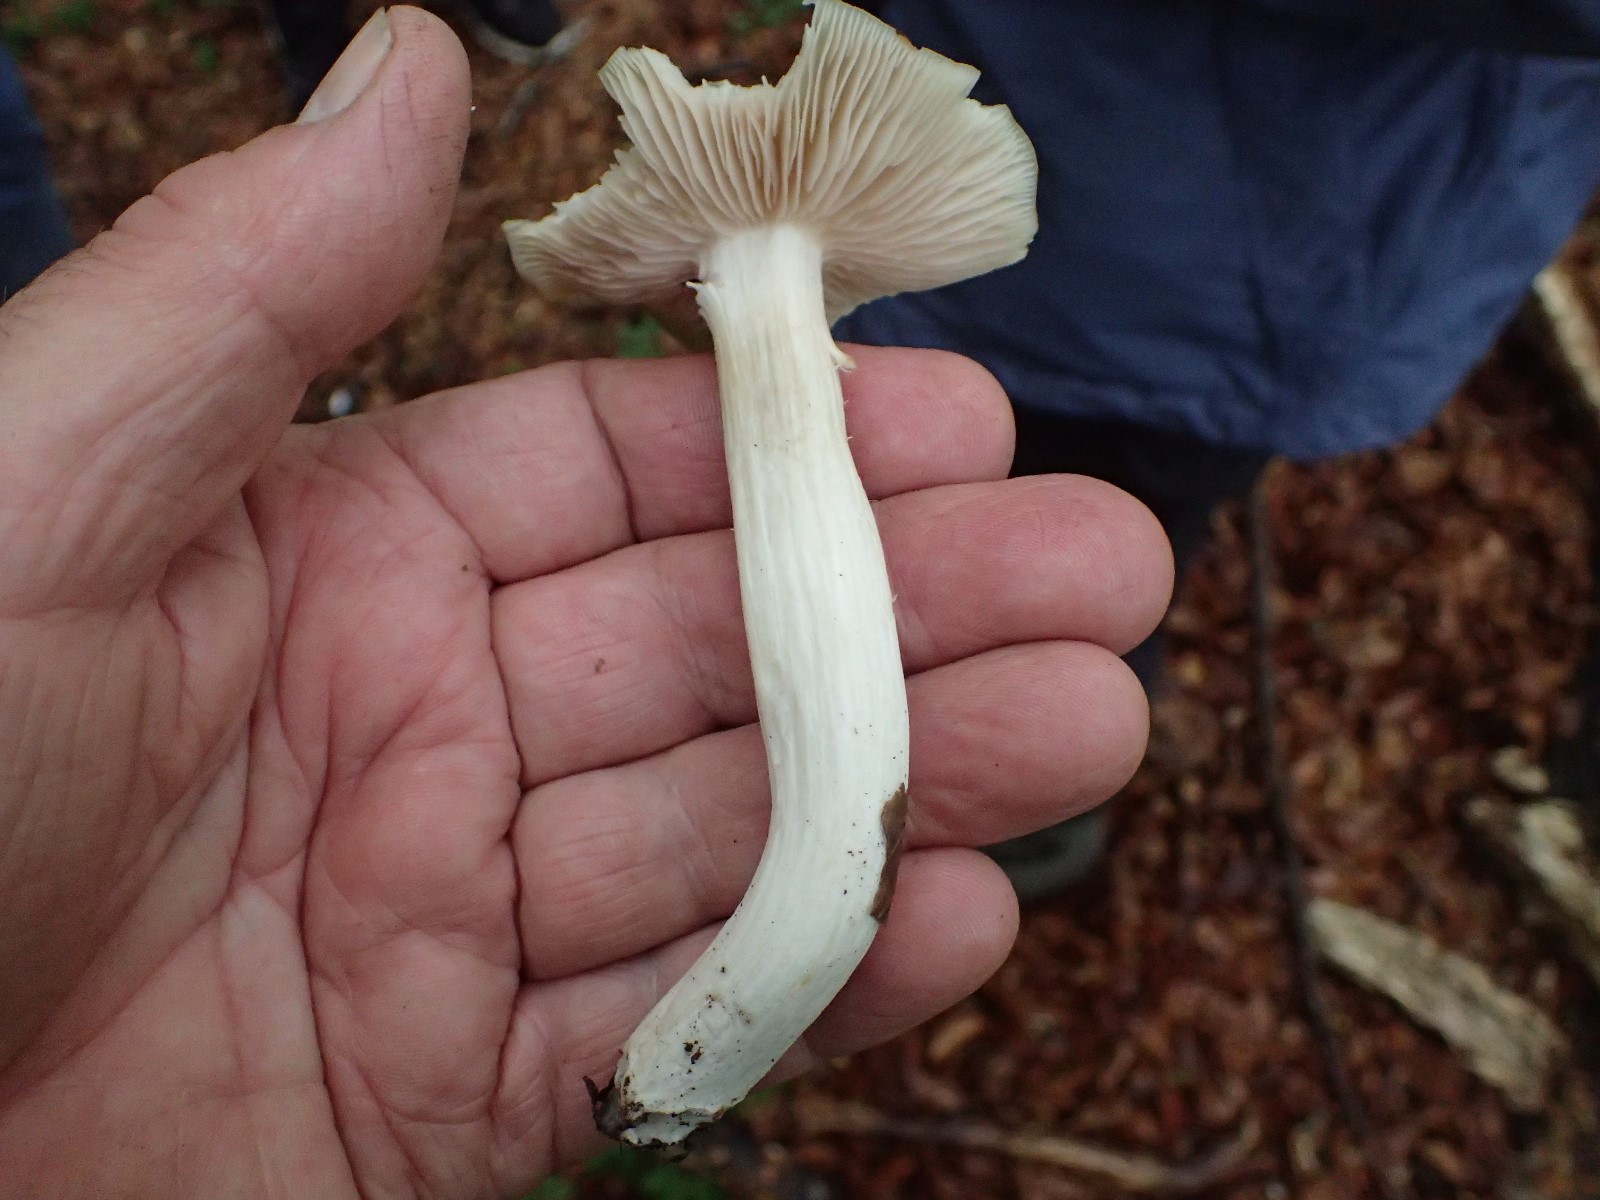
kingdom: Fungi
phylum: Basidiomycota
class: Agaricomycetes
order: Agaricales
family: Entolomataceae
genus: Entoloma
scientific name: Entoloma
